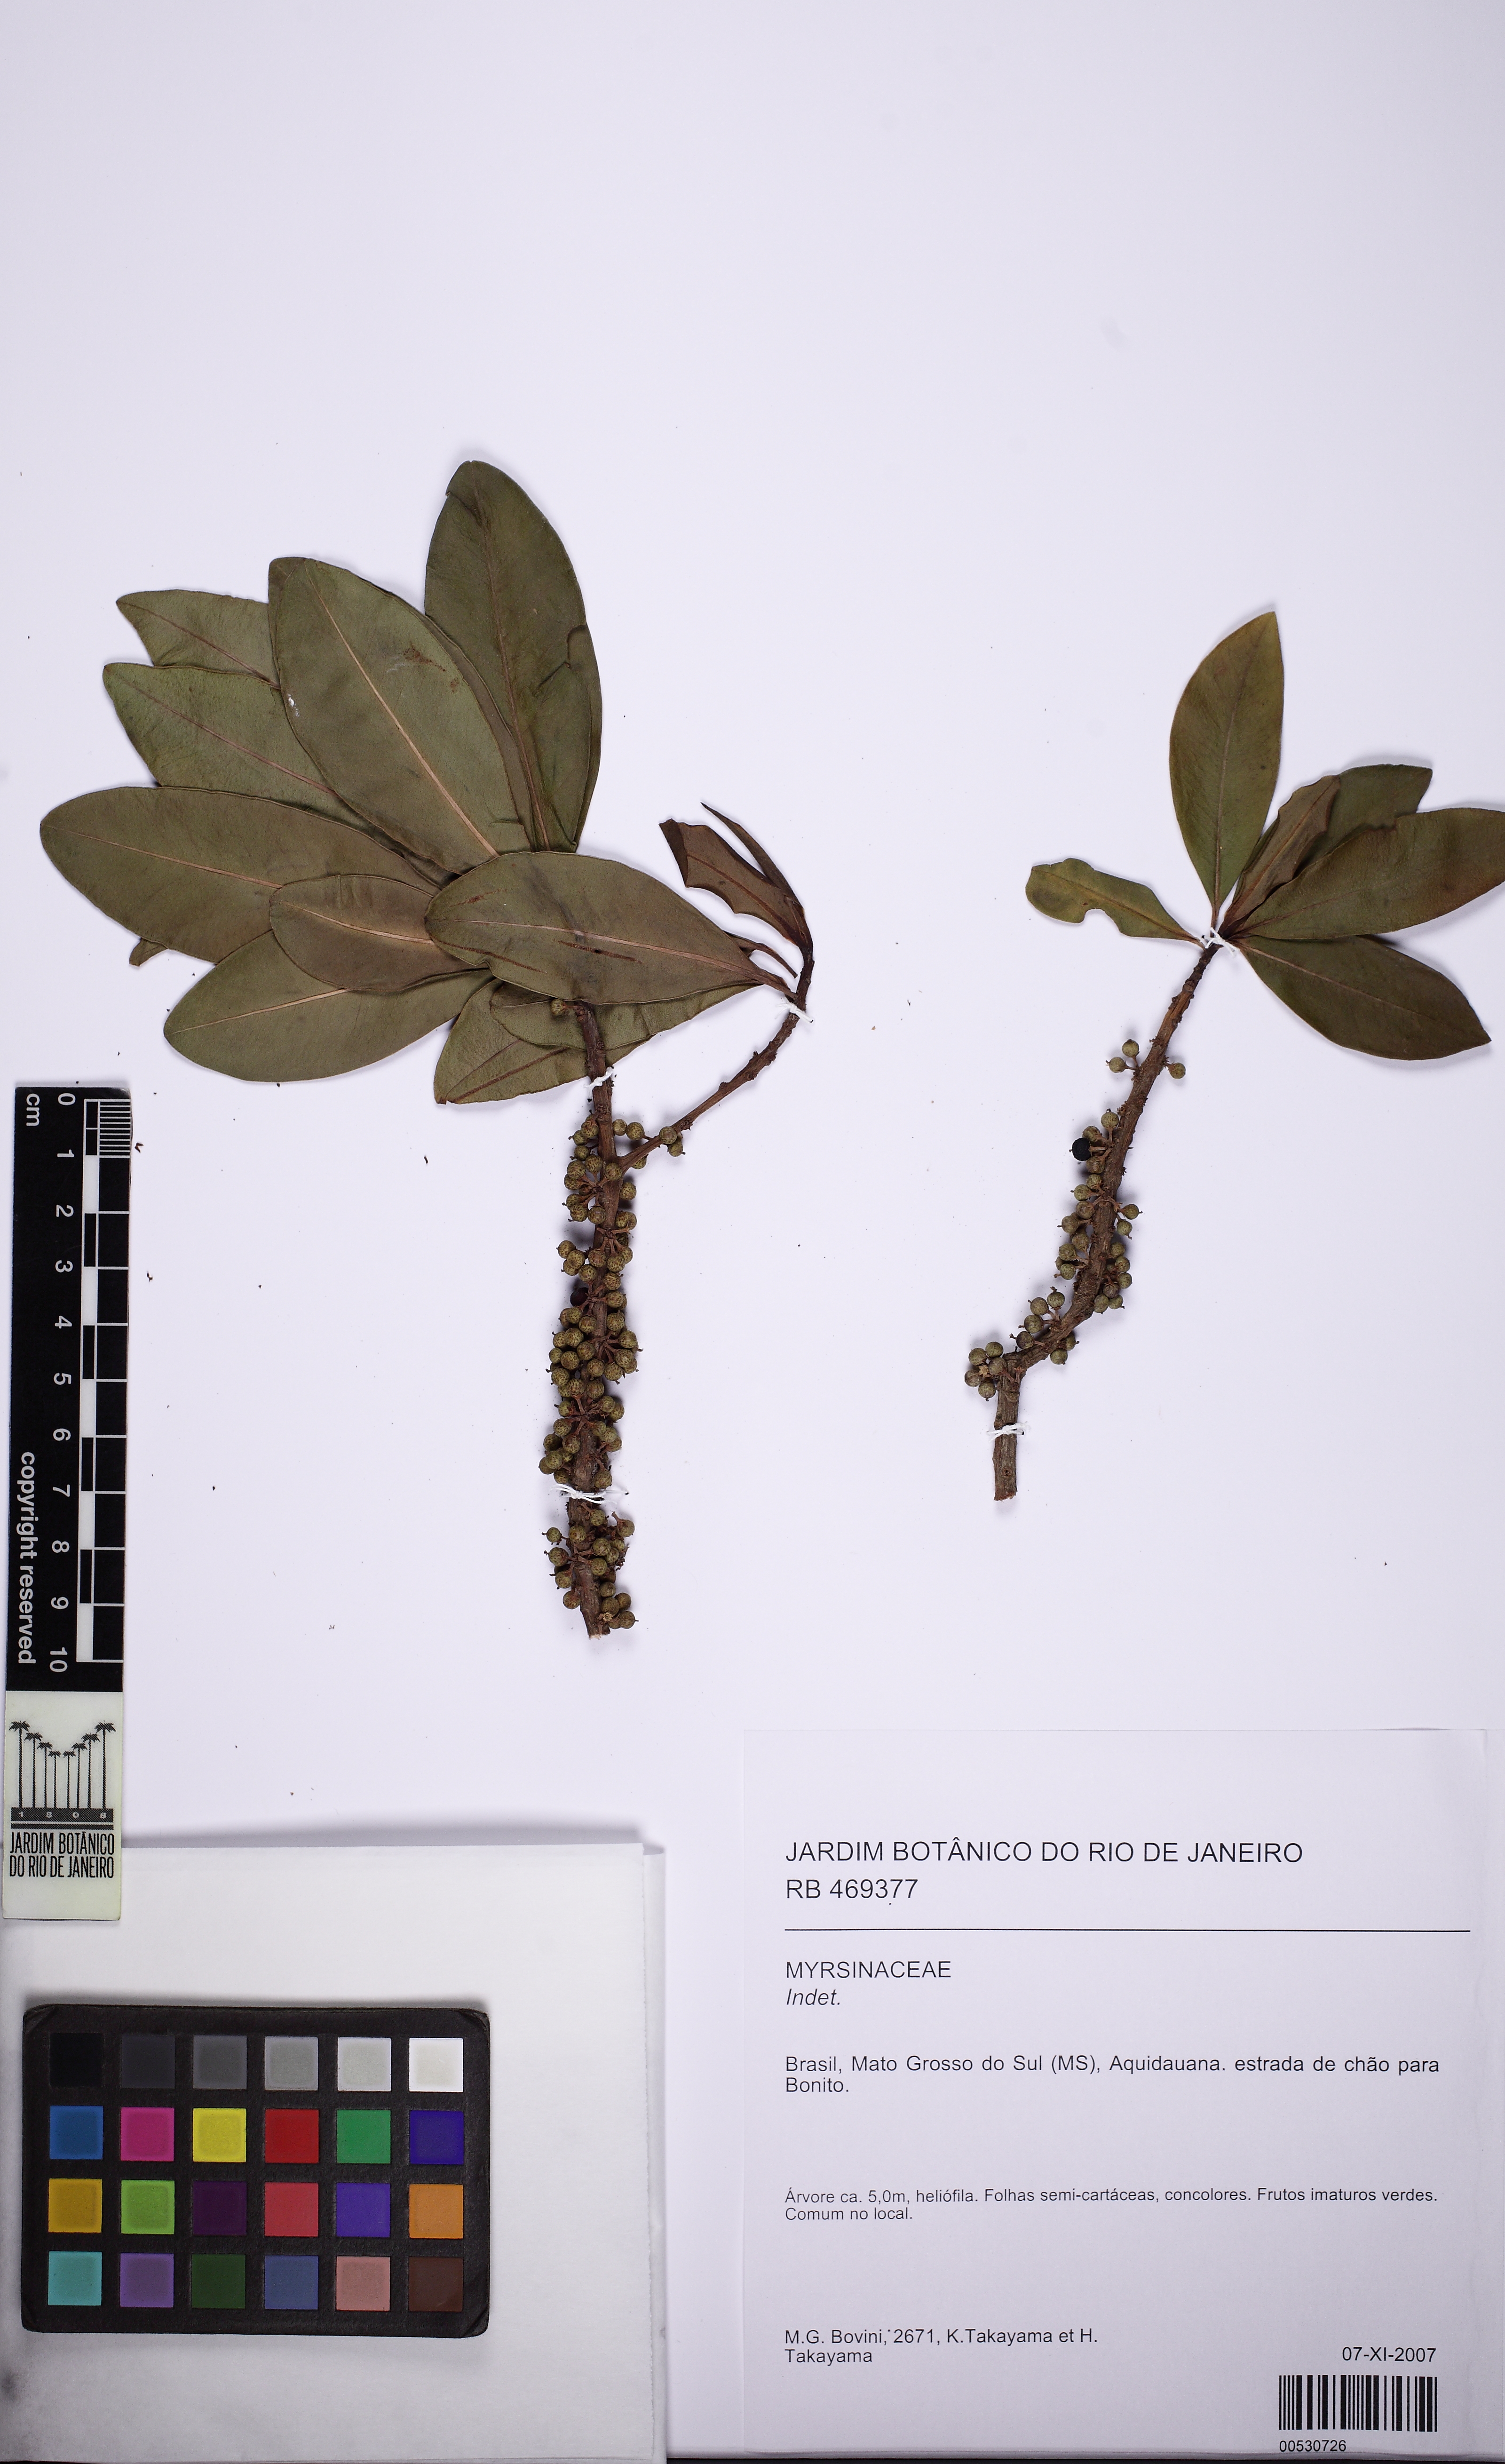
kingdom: Plantae
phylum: Tracheophyta
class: Magnoliopsida
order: Ericales
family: Primulaceae
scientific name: Primulaceae
